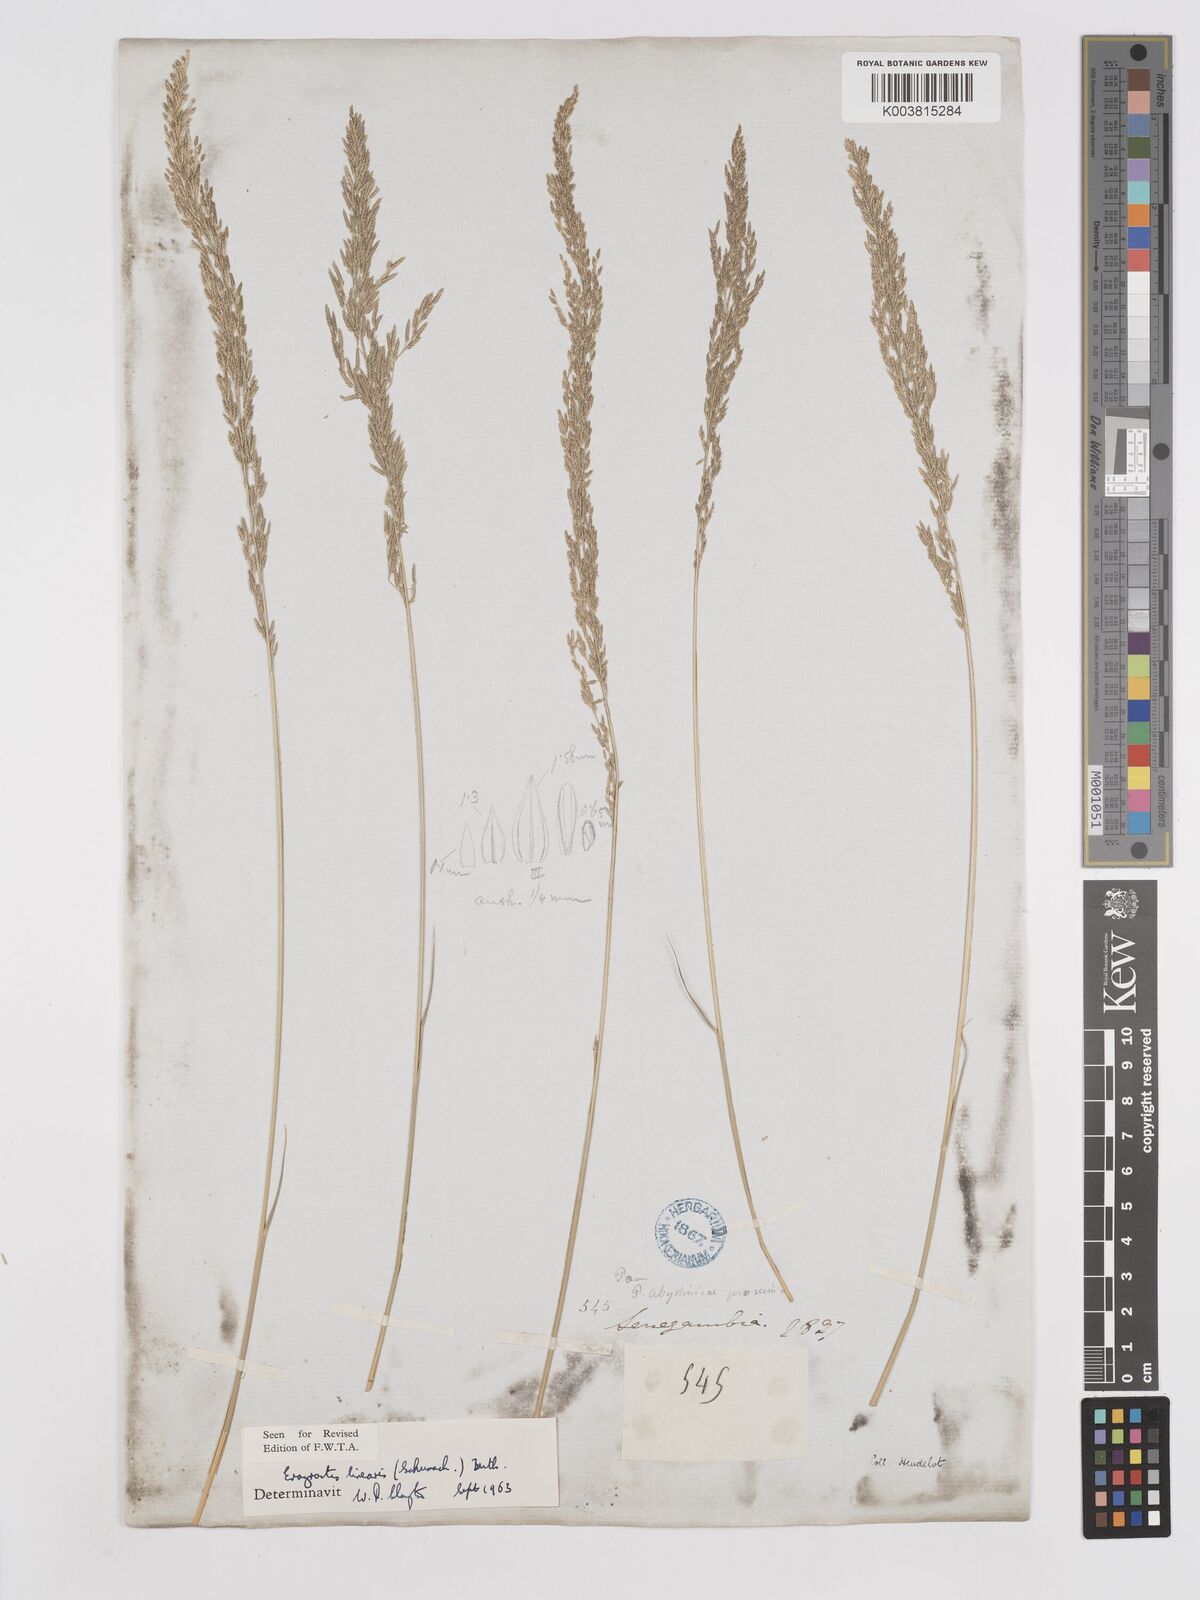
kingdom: Plantae
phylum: Tracheophyta
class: Liliopsida
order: Poales
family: Poaceae
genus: Eragrostis
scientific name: Eragrostis prolifera
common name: Dominican lovegrass
